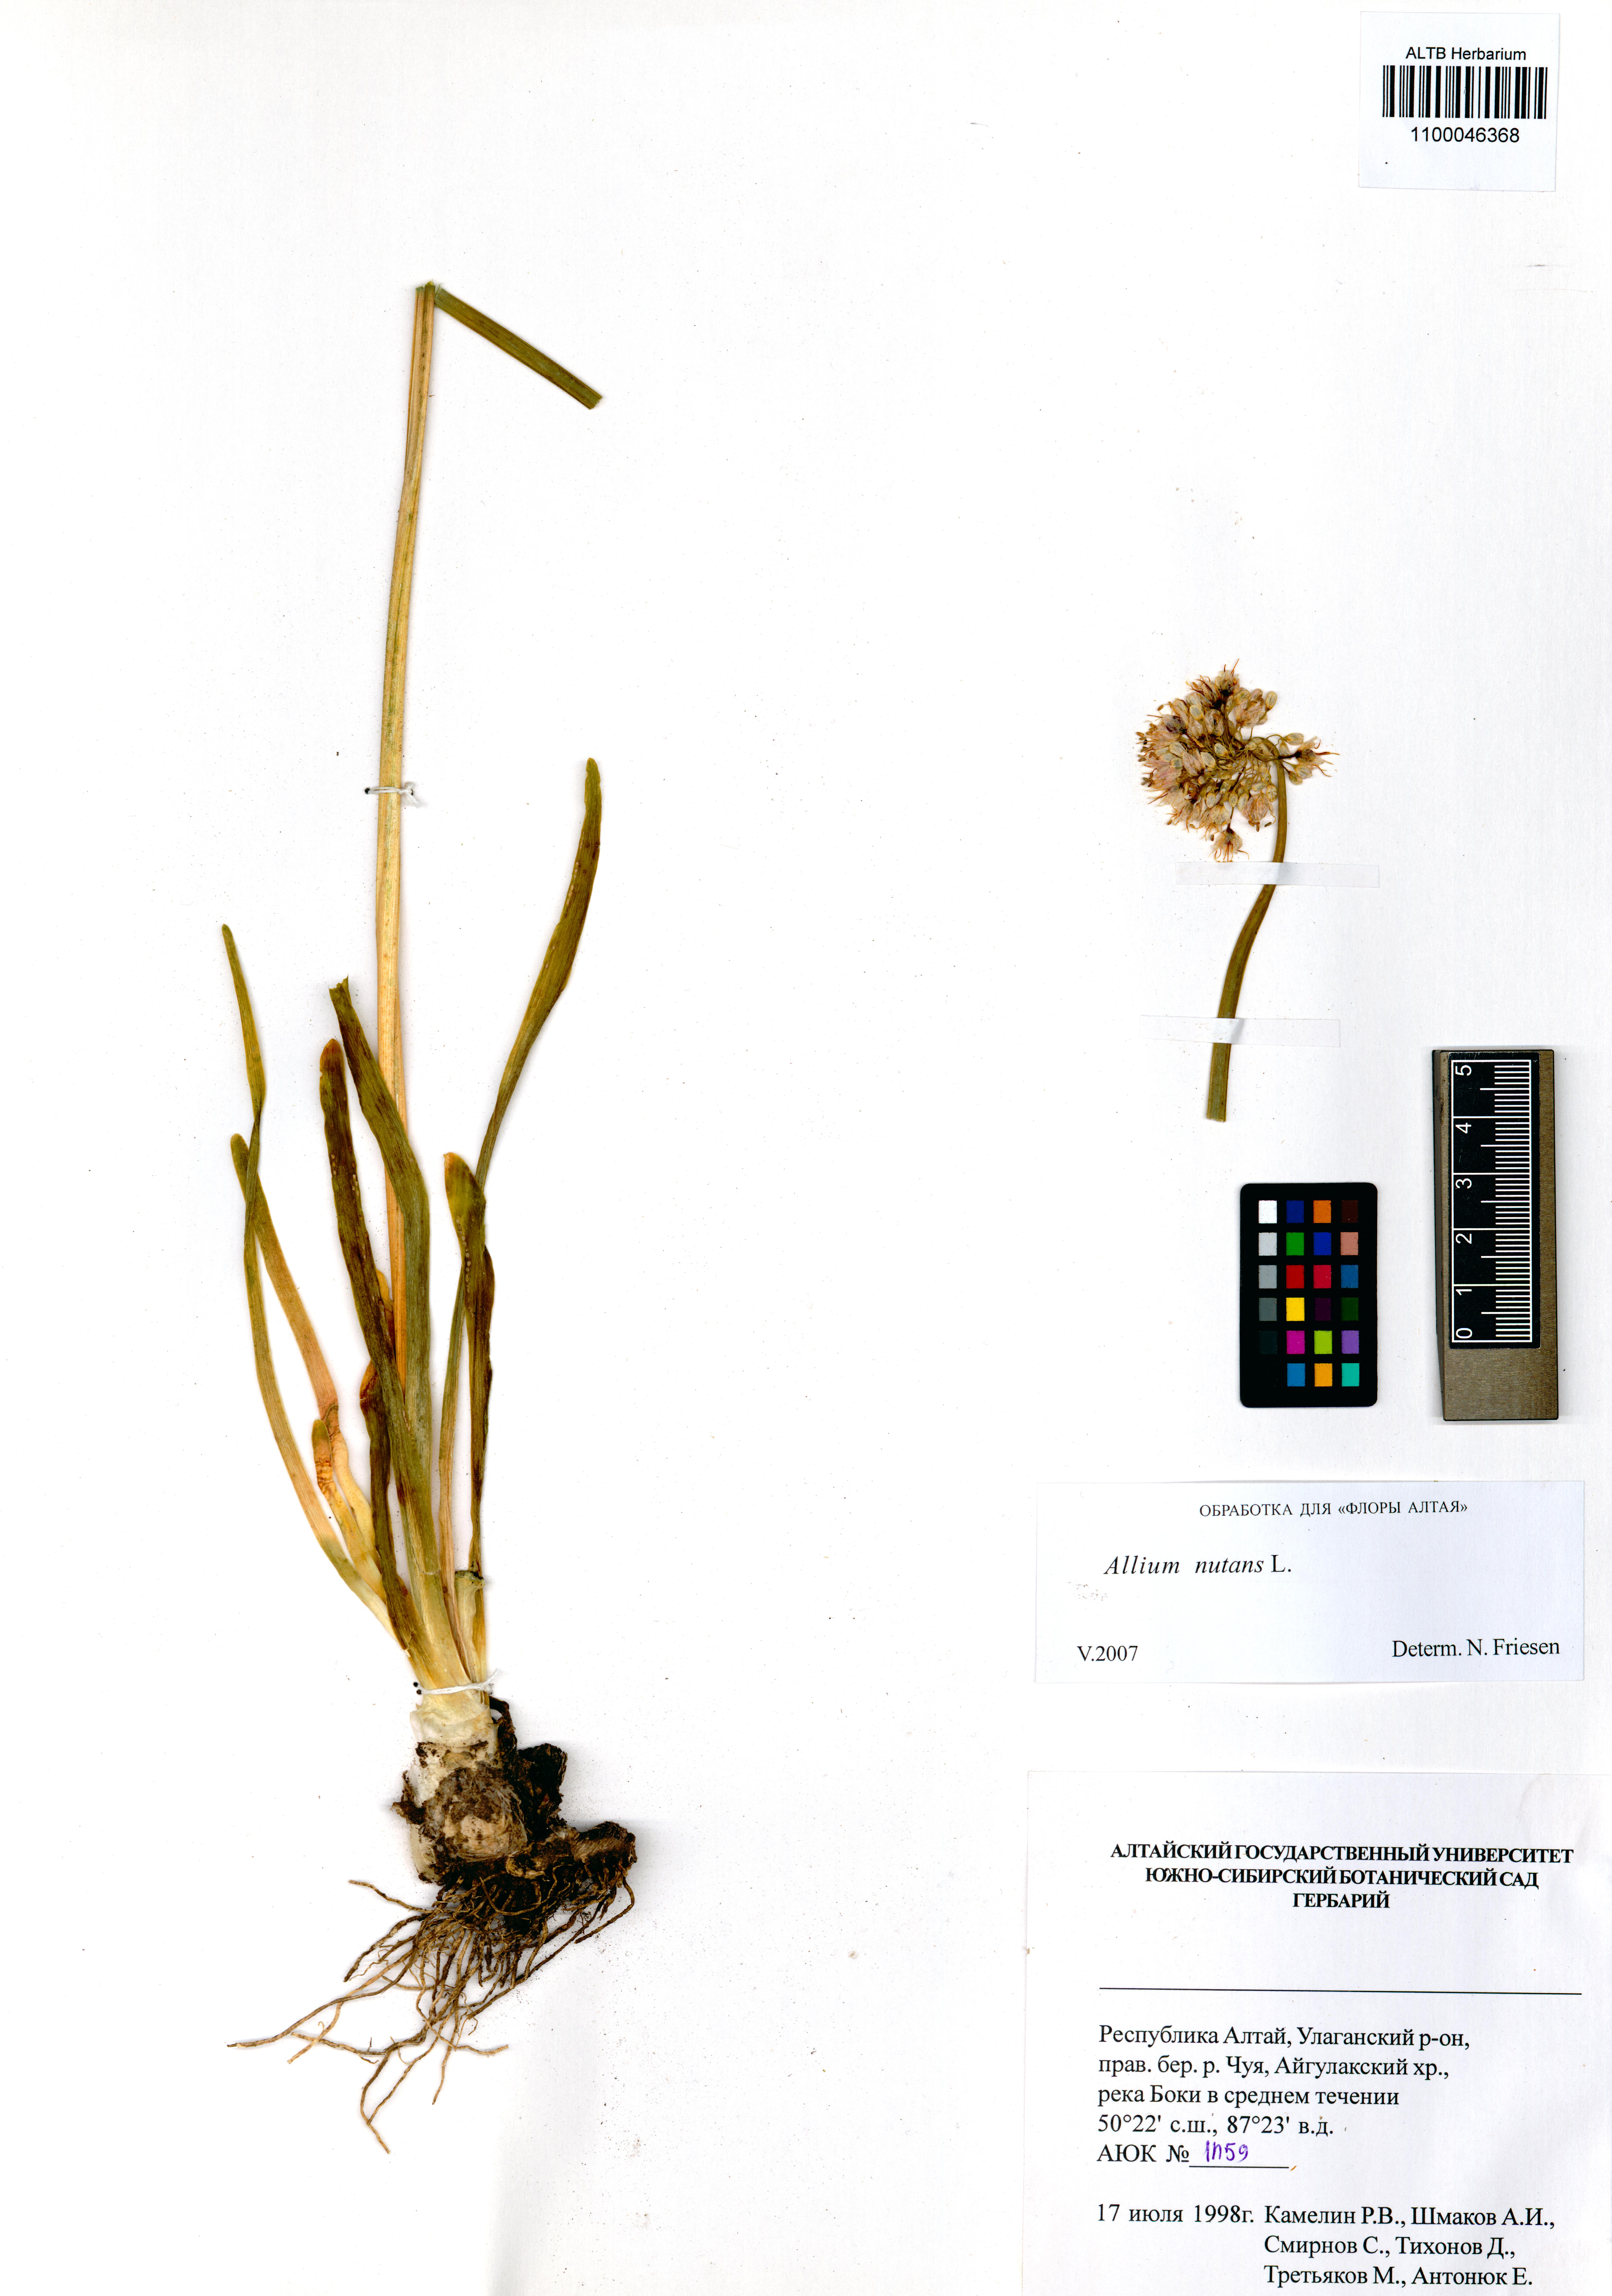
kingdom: Plantae
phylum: Tracheophyta
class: Liliopsida
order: Asparagales
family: Amaryllidaceae
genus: Allium
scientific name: Allium nutans
